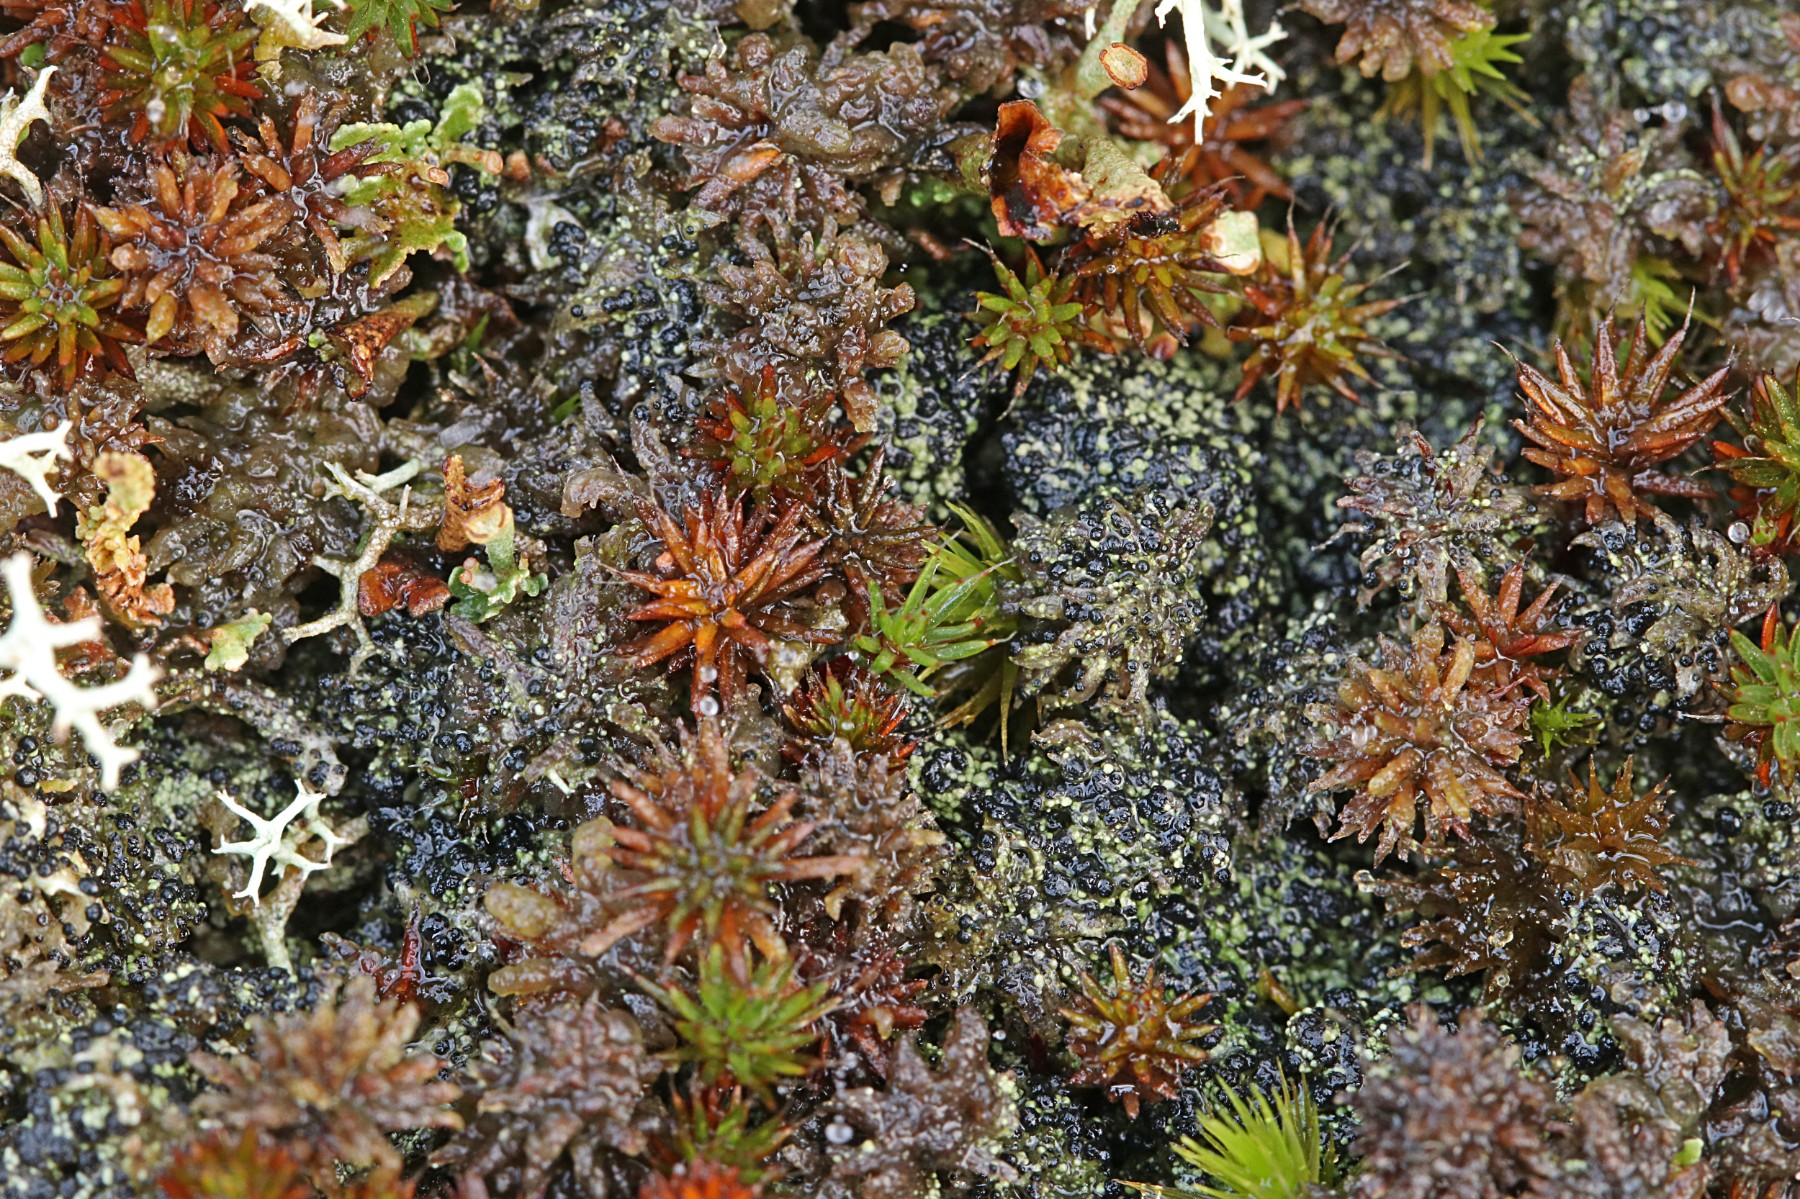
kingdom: Fungi
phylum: Ascomycota
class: Lecanoromycetes
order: Lecanorales
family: Byssolomataceae
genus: Micarea
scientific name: Micarea lignaria
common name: tørve-knaplav
